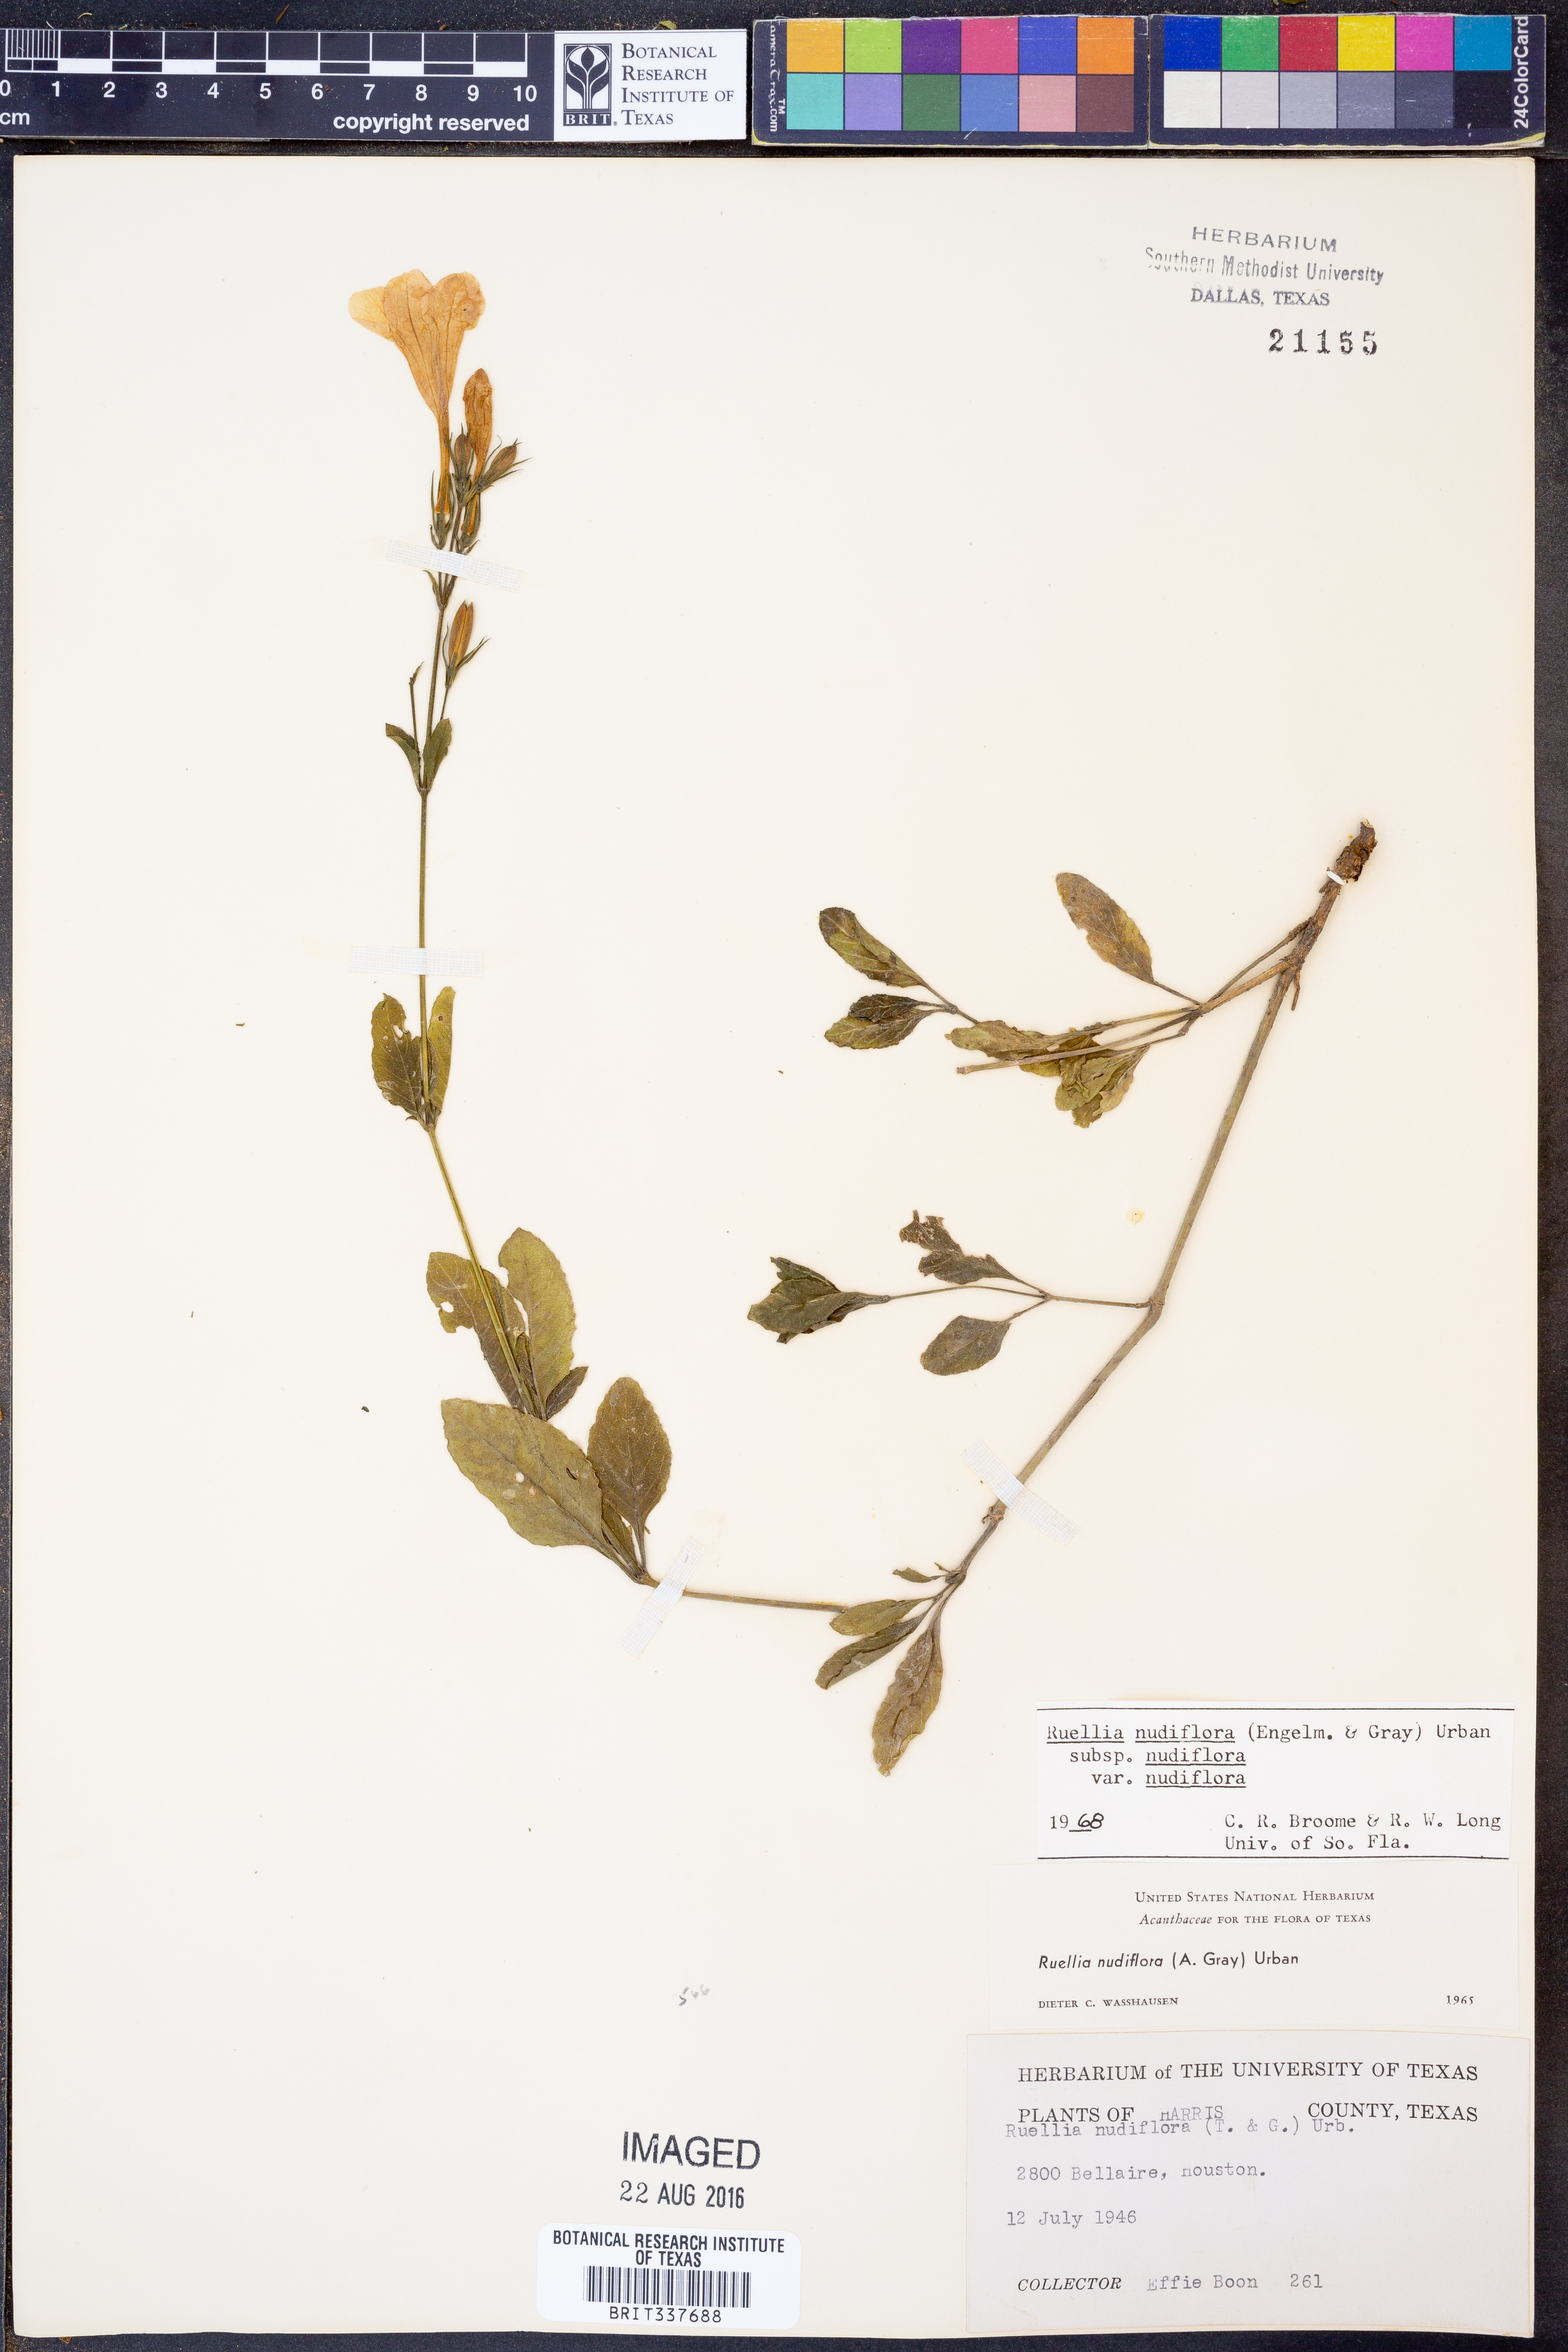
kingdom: Plantae
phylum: Tracheophyta
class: Magnoliopsida
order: Lamiales
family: Acanthaceae
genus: Ruellia
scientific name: Ruellia ciliatiflora
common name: Hairyflower wild petunia
